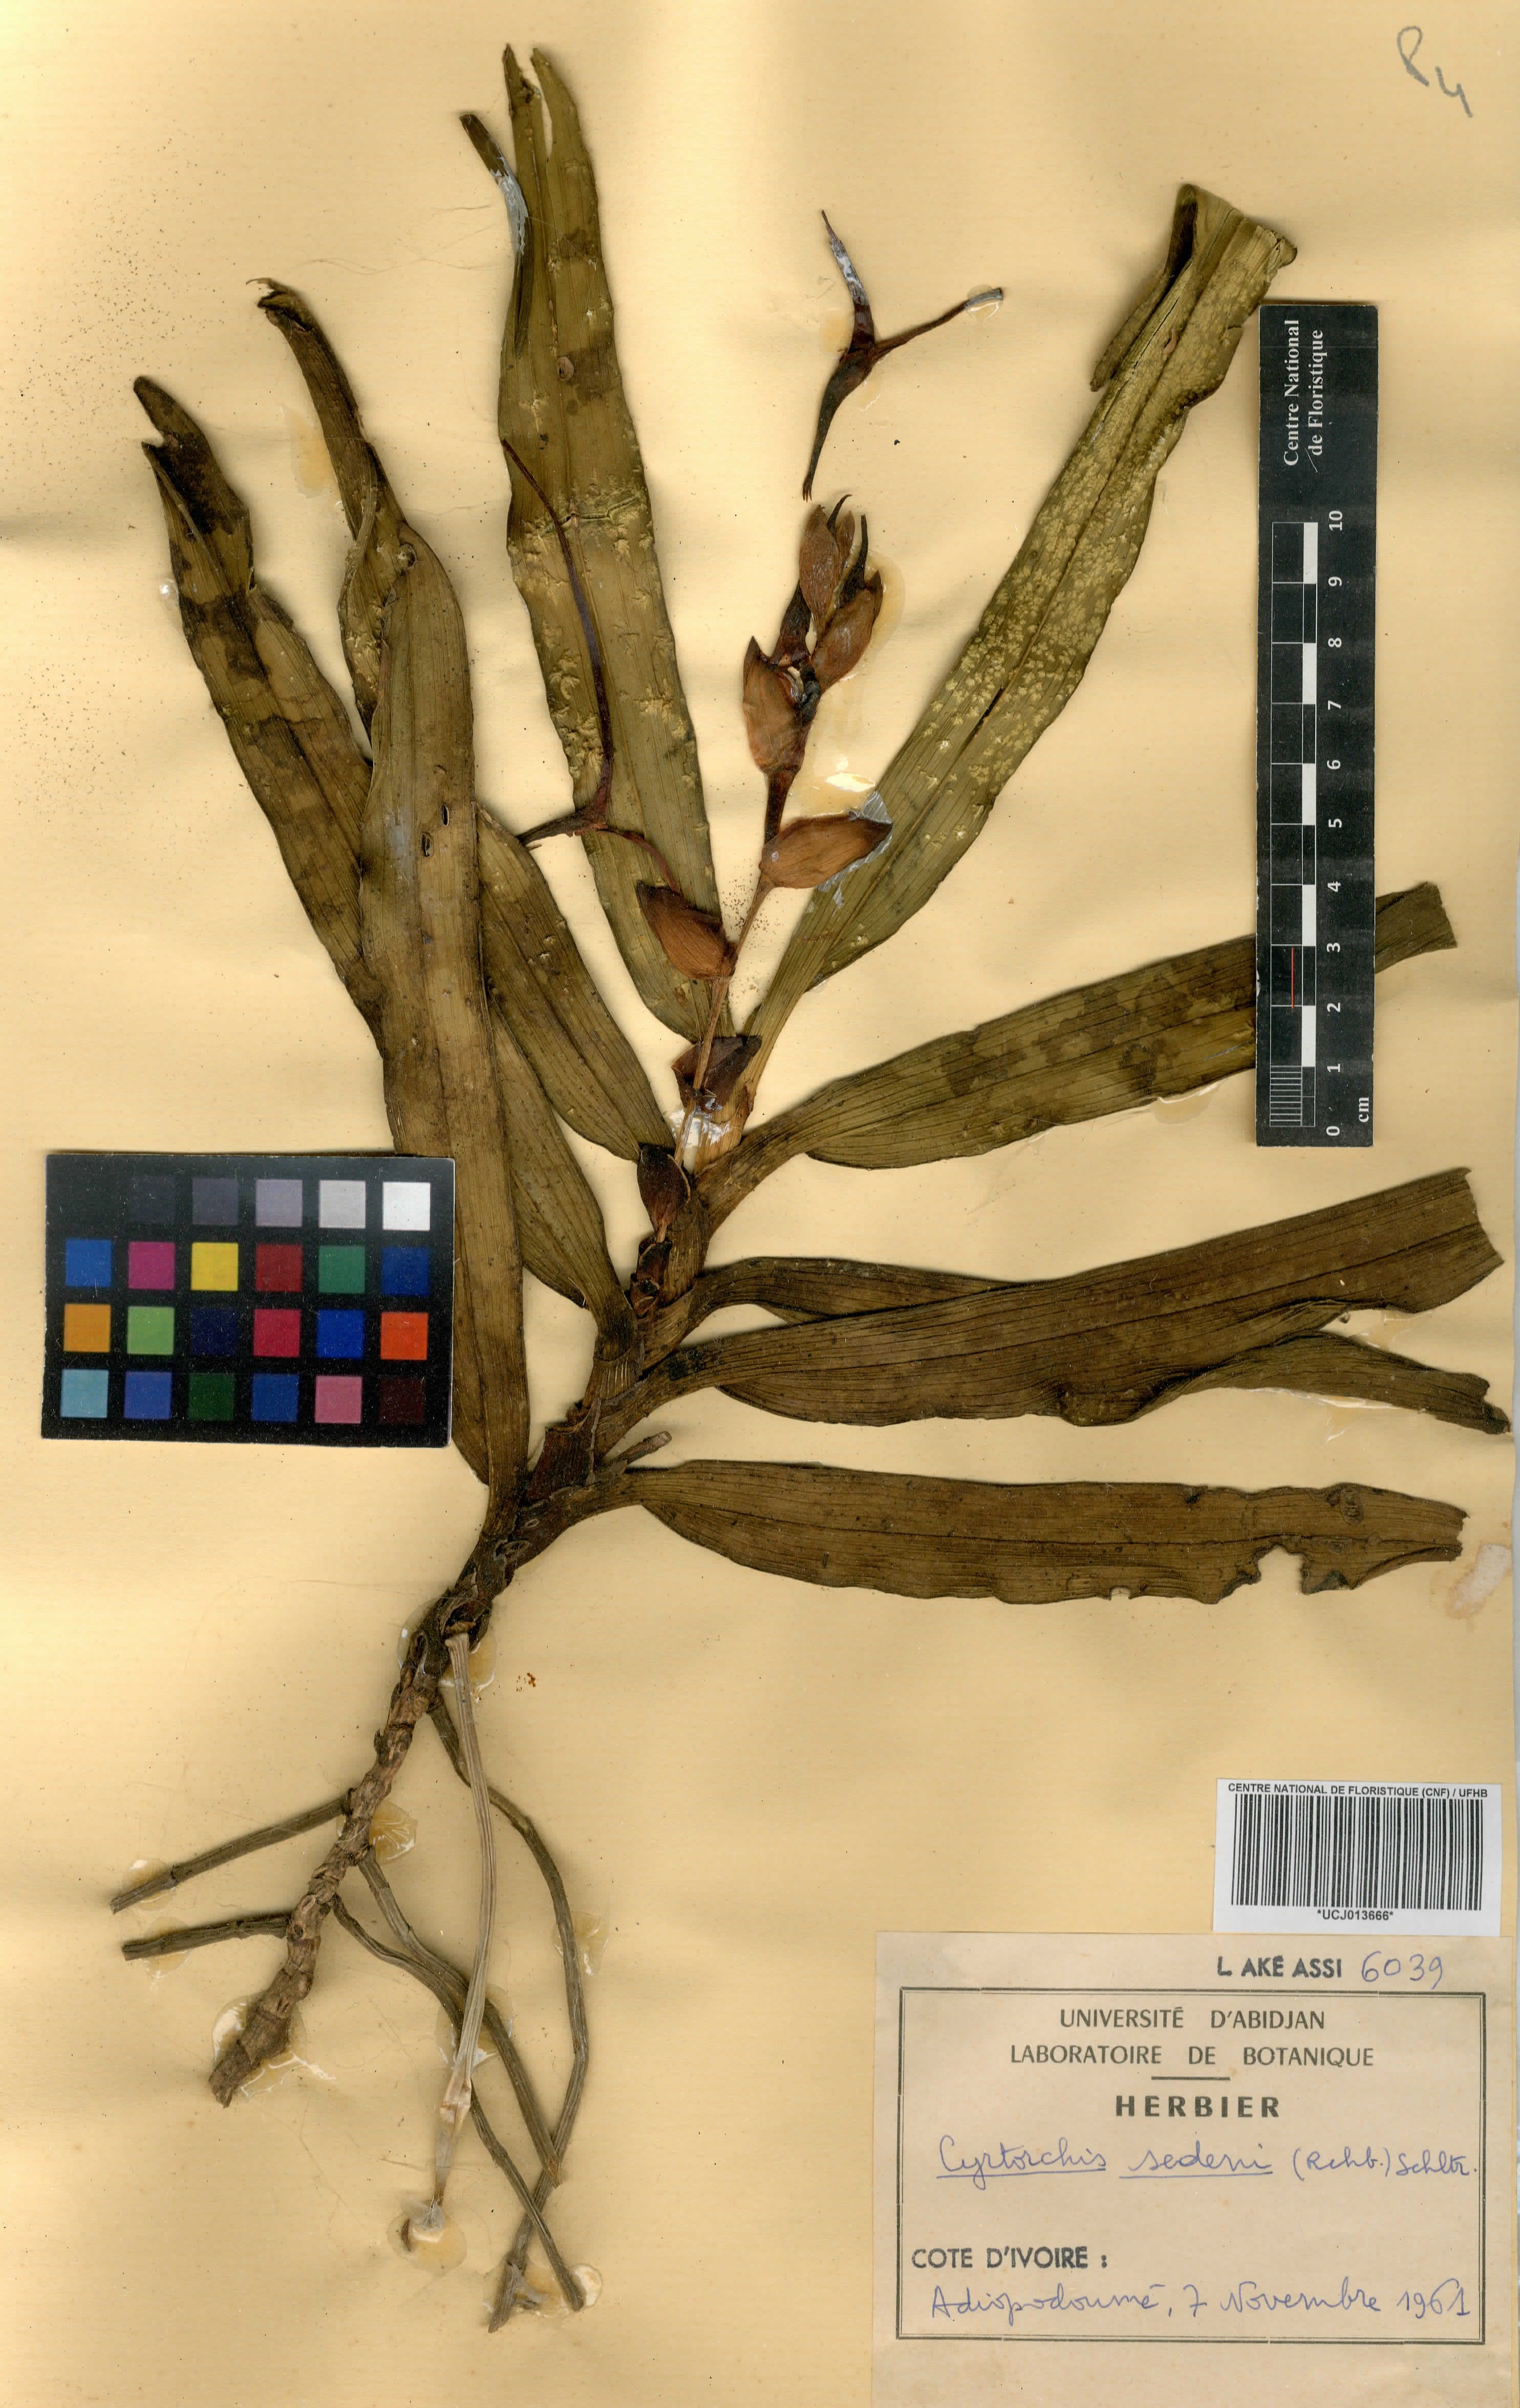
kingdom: Plantae
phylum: Tracheophyta
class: Liliopsida
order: Asparagales
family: Orchidaceae
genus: Cyrtorchis
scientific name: Cyrtorchis arcuata
